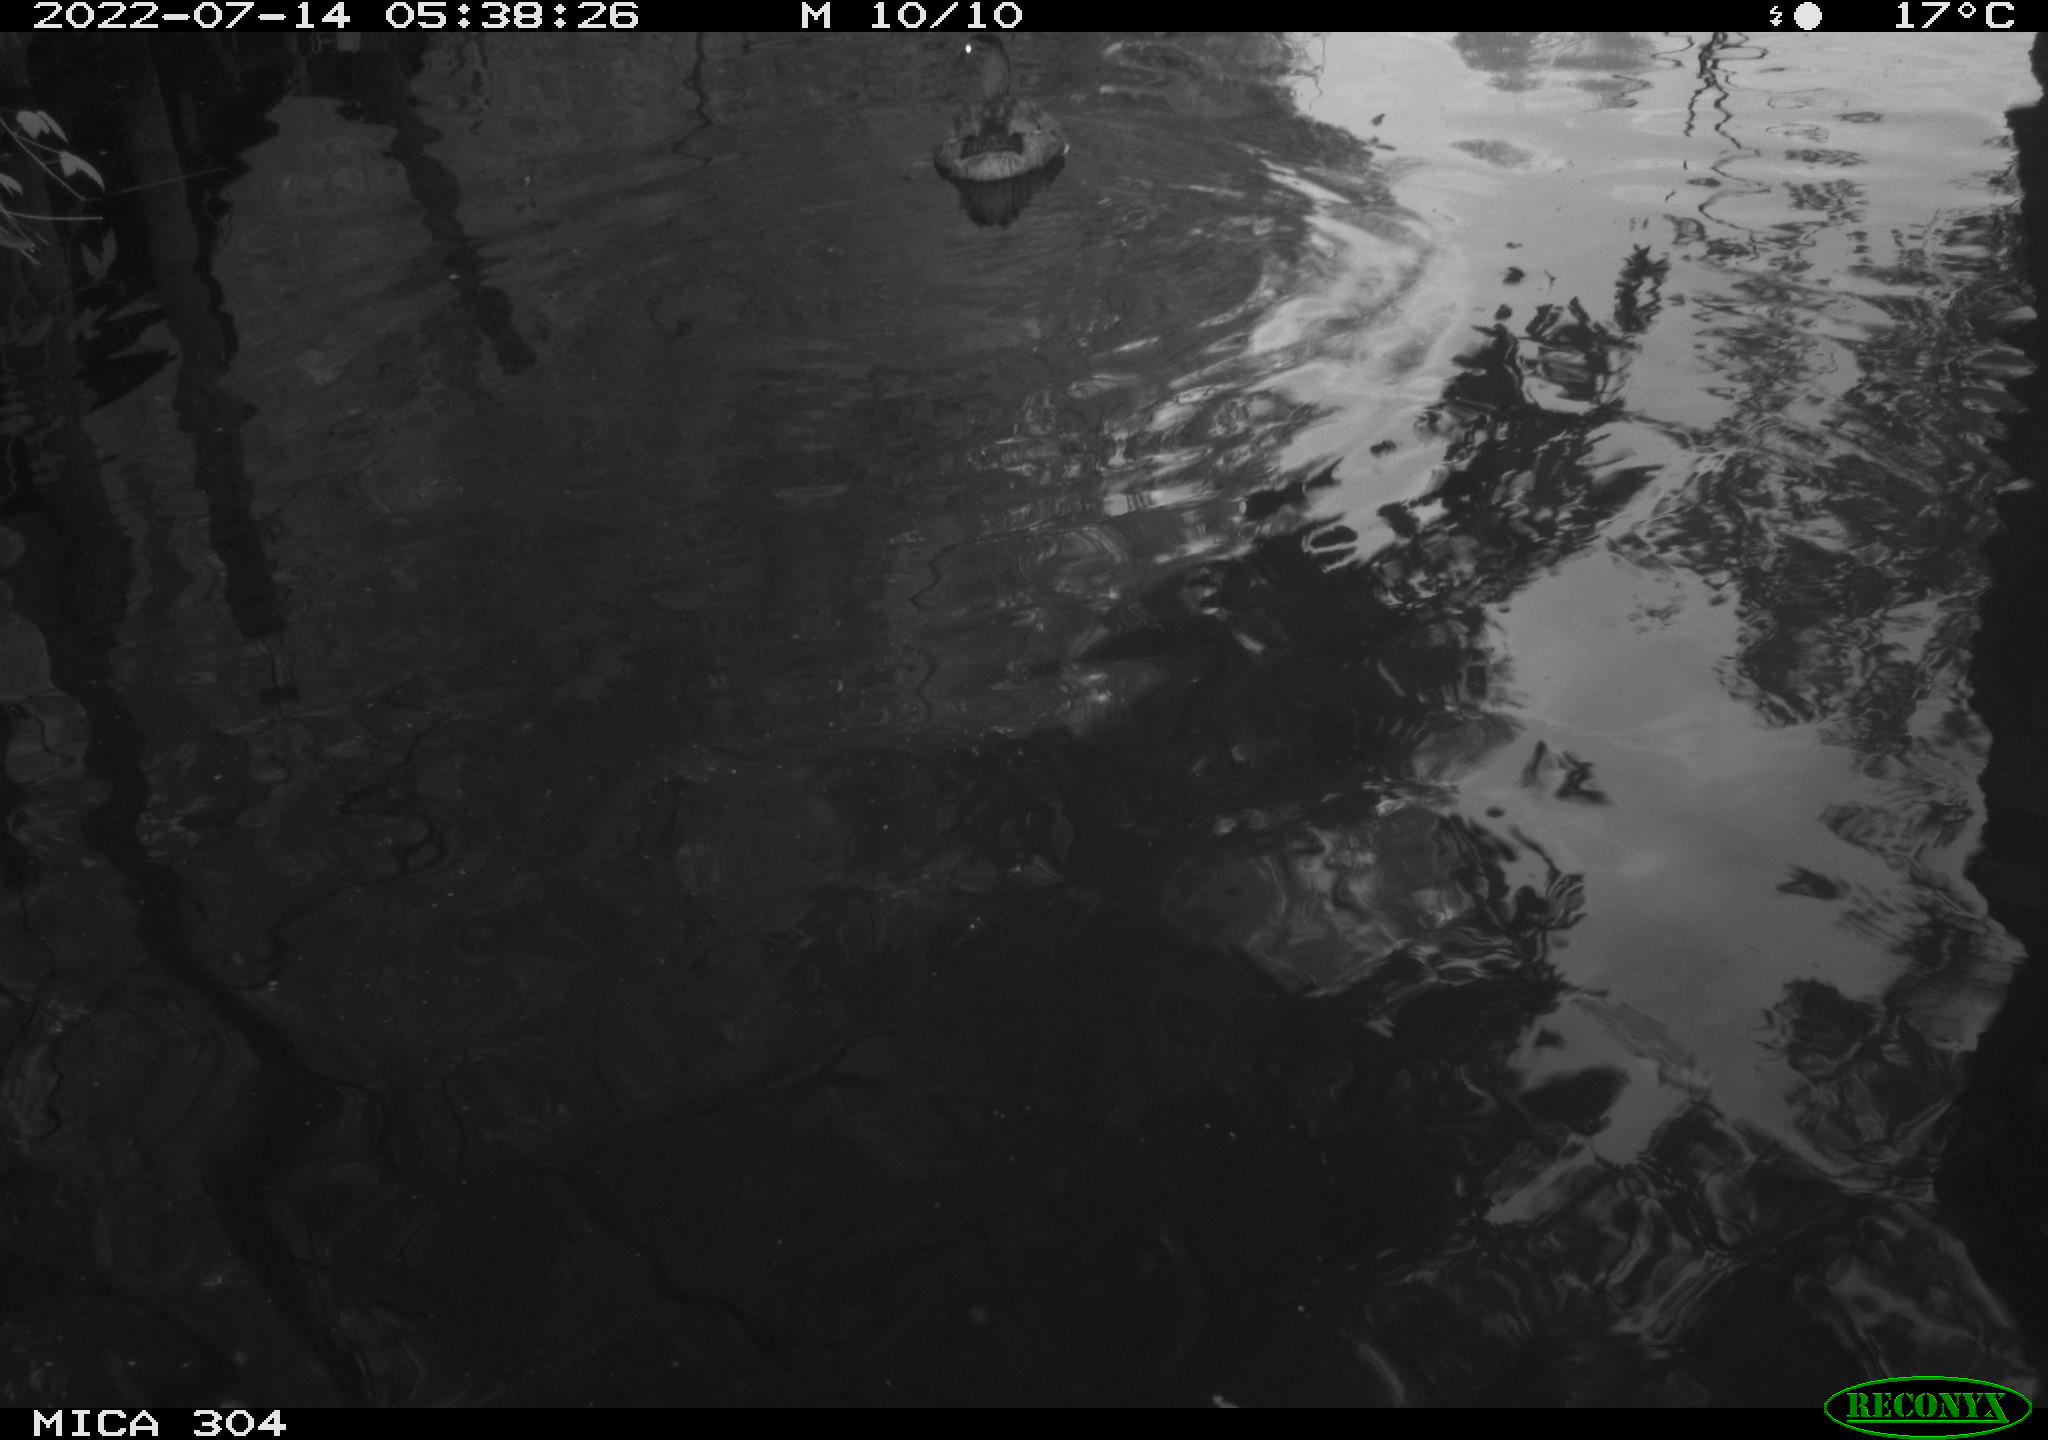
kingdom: Animalia
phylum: Chordata
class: Aves
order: Anseriformes
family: Anatidae
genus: Anas
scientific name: Anas platyrhynchos
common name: Mallard
